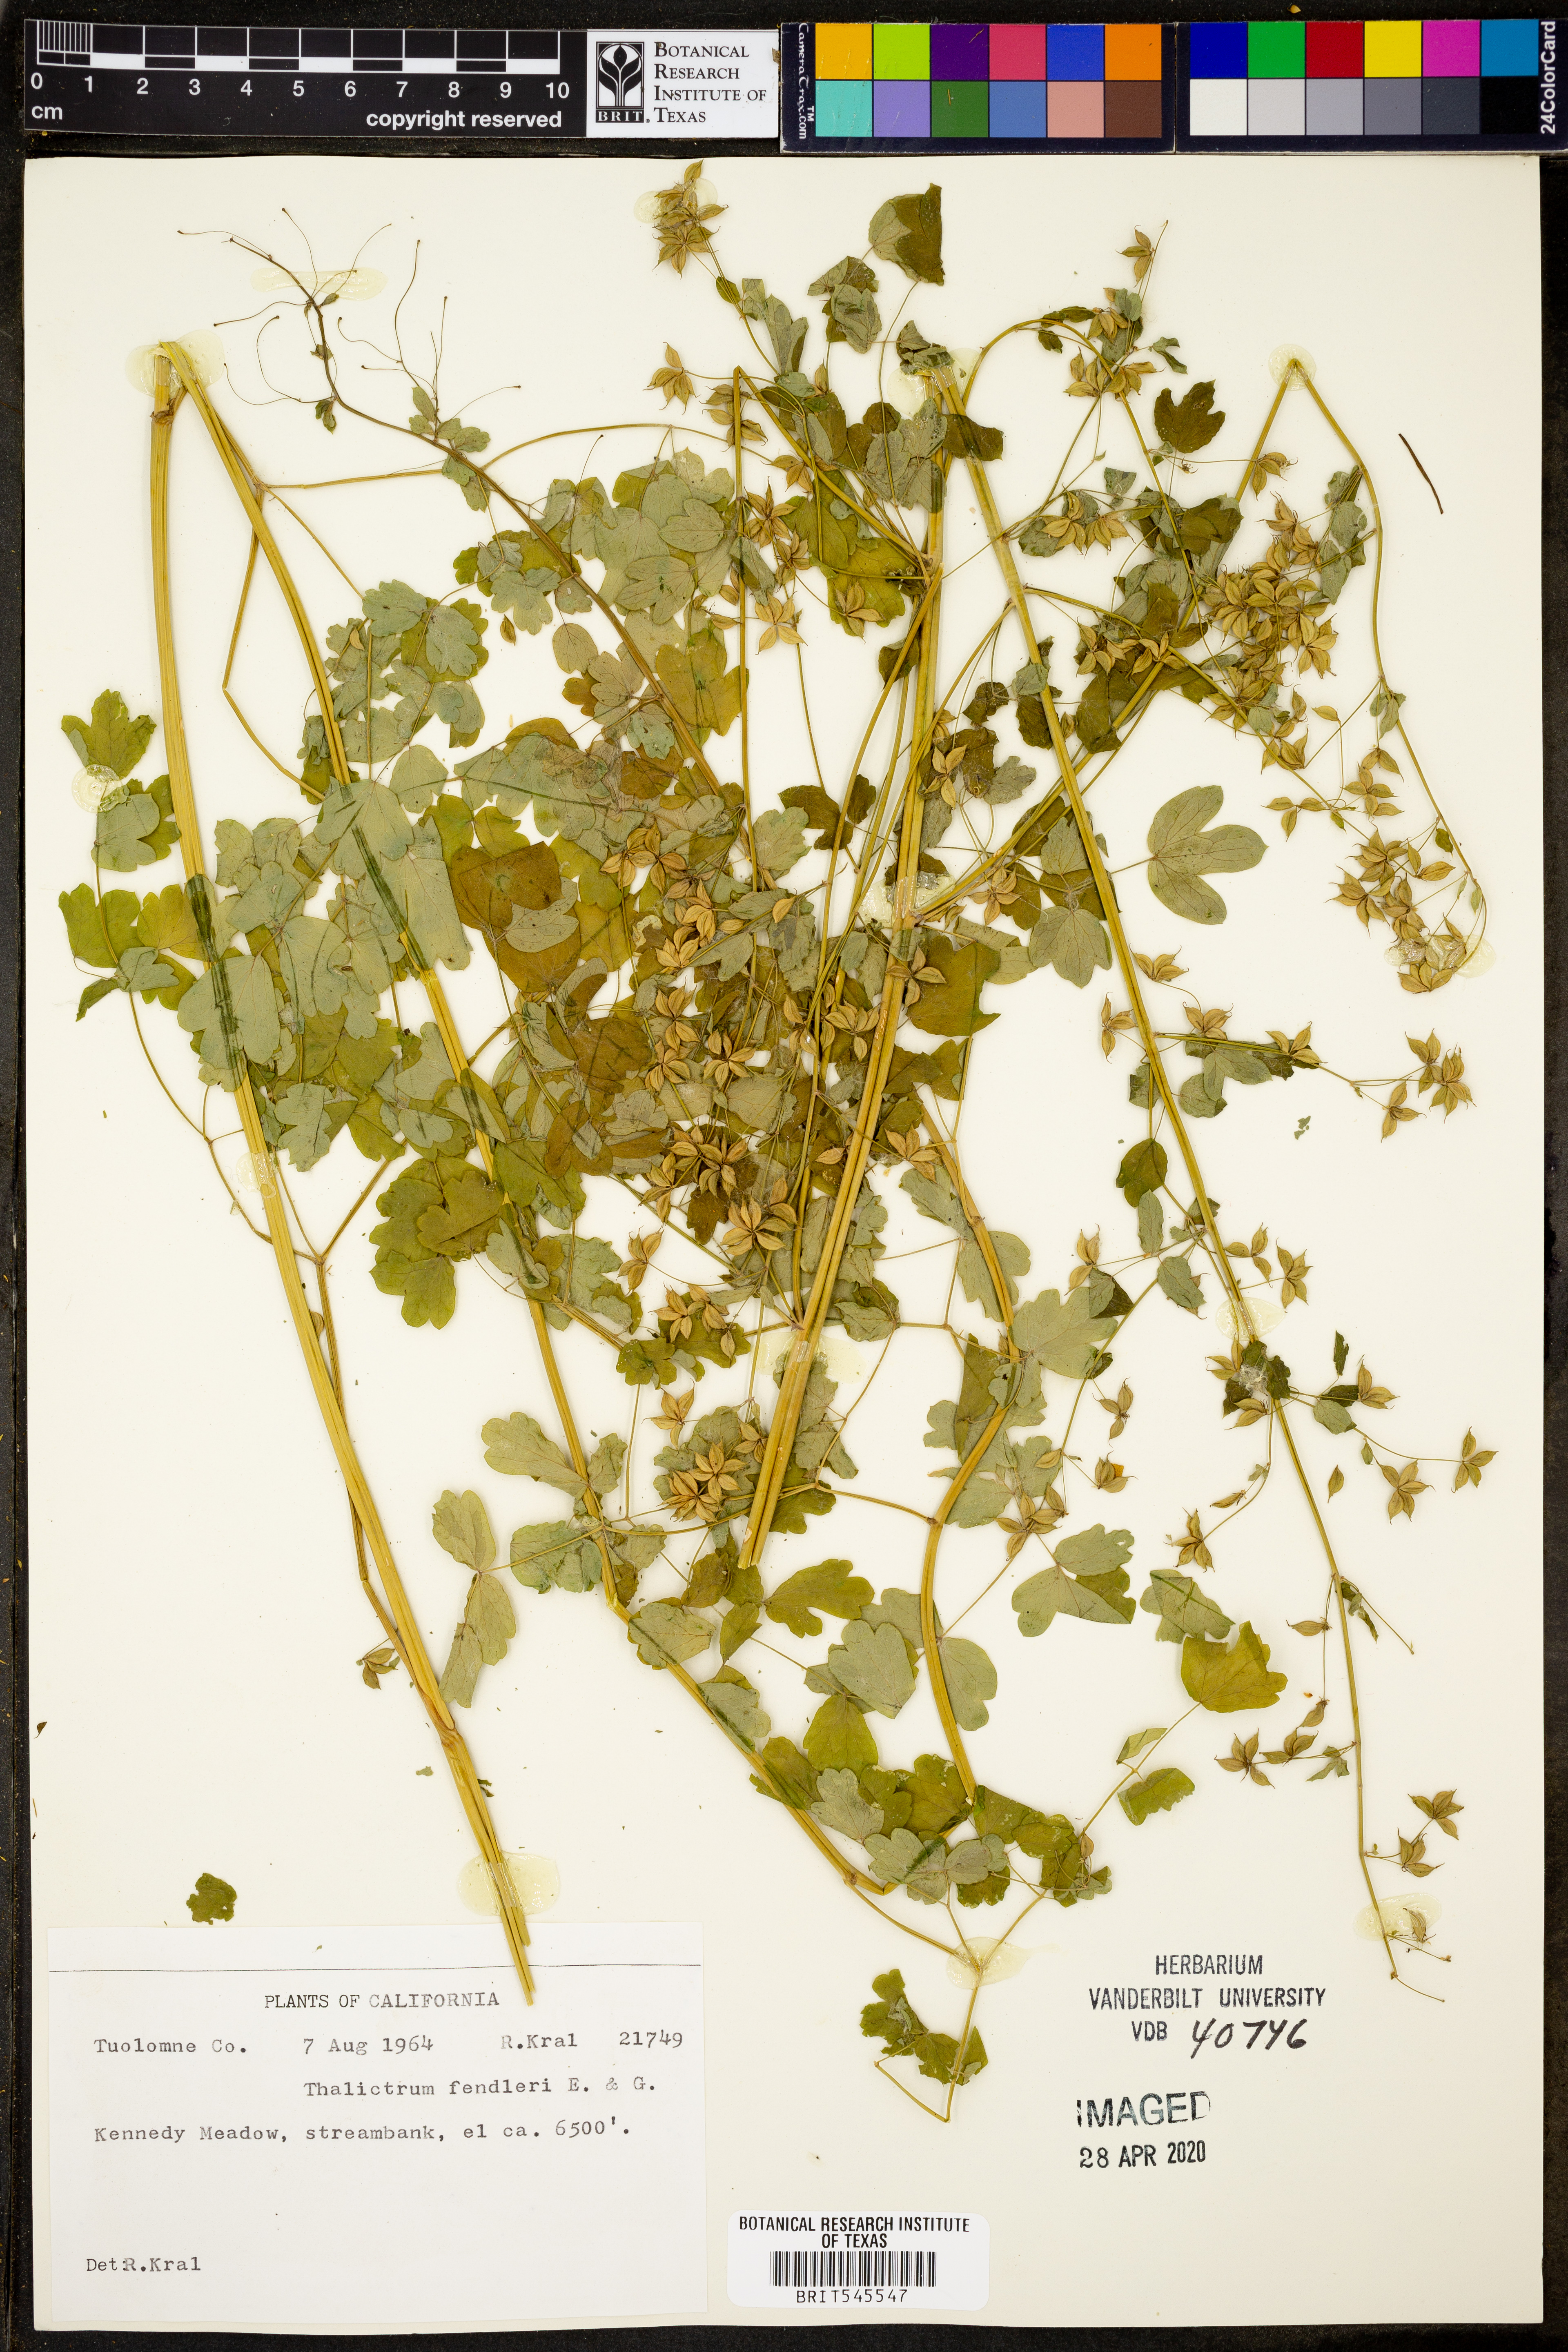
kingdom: Plantae
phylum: Tracheophyta
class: Magnoliopsida
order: Ranunculales
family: Ranunculaceae
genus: Thalictrum
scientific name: Thalictrum fendleri
